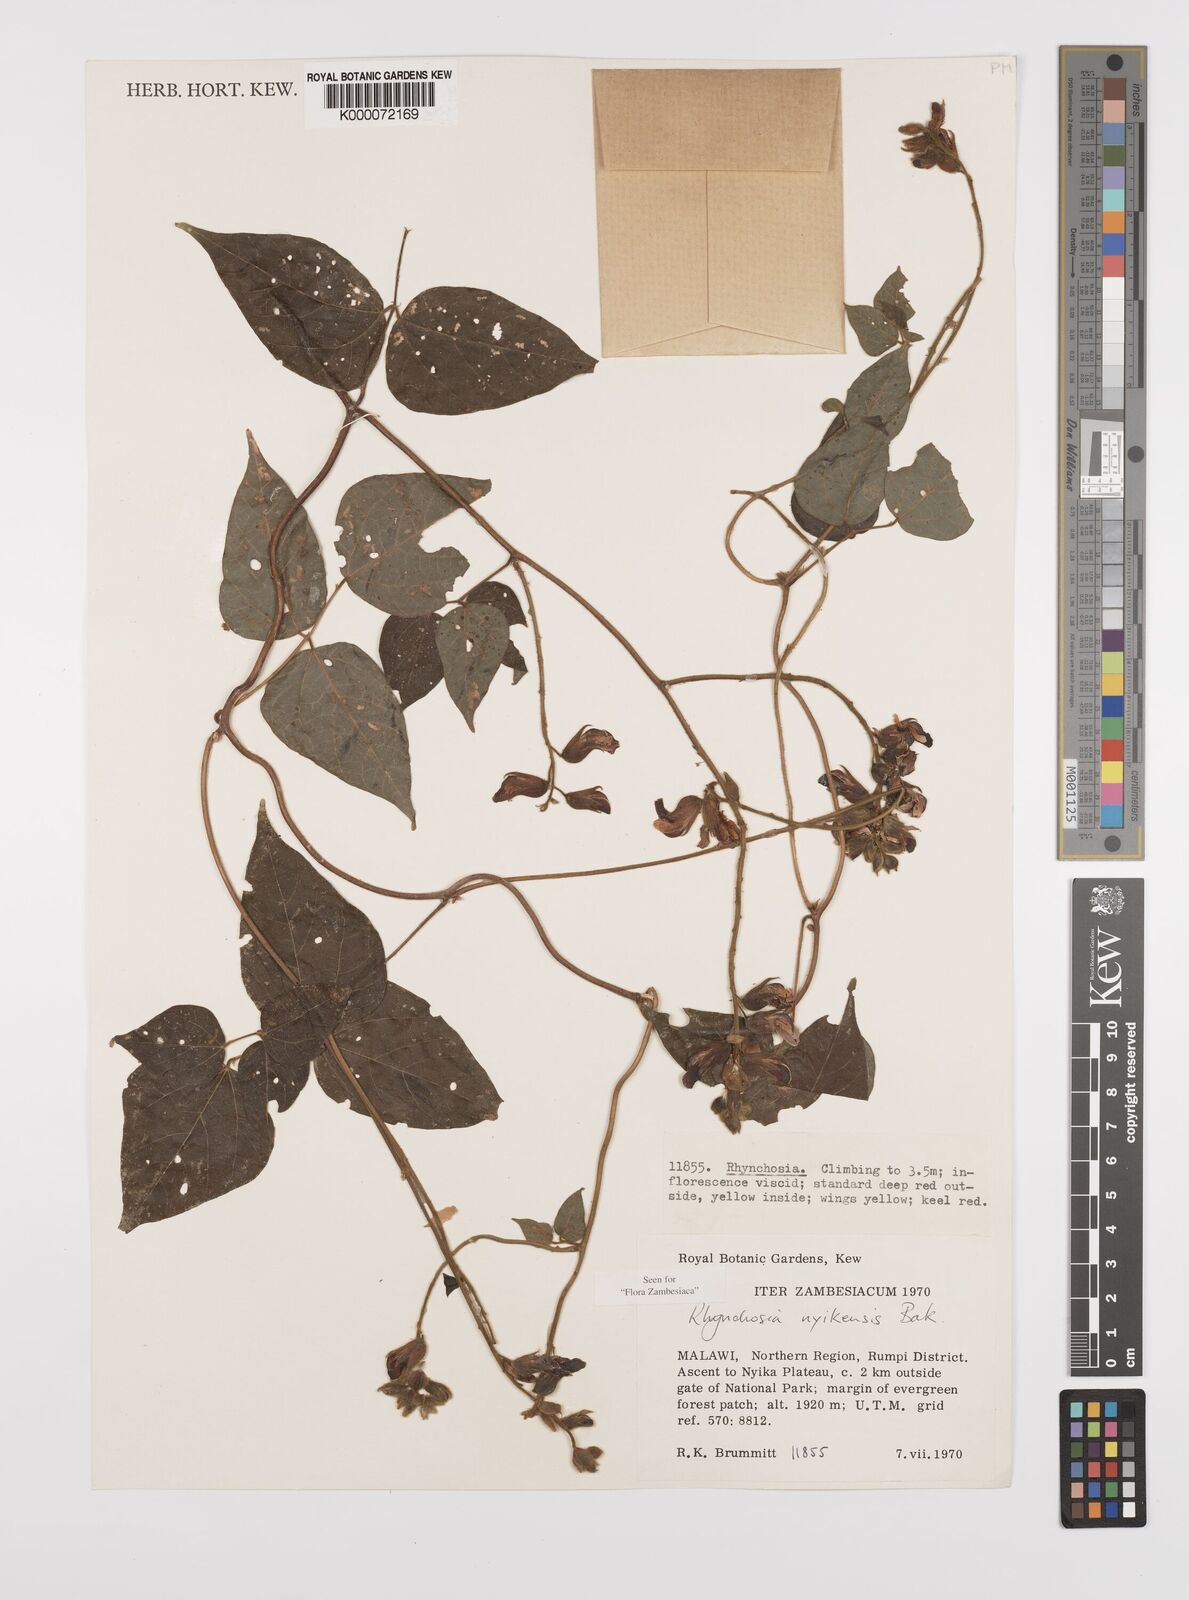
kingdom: Plantae
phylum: Tracheophyta
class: Magnoliopsida
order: Fabales
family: Fabaceae
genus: Rhynchosia
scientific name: Rhynchosia nyikensis
